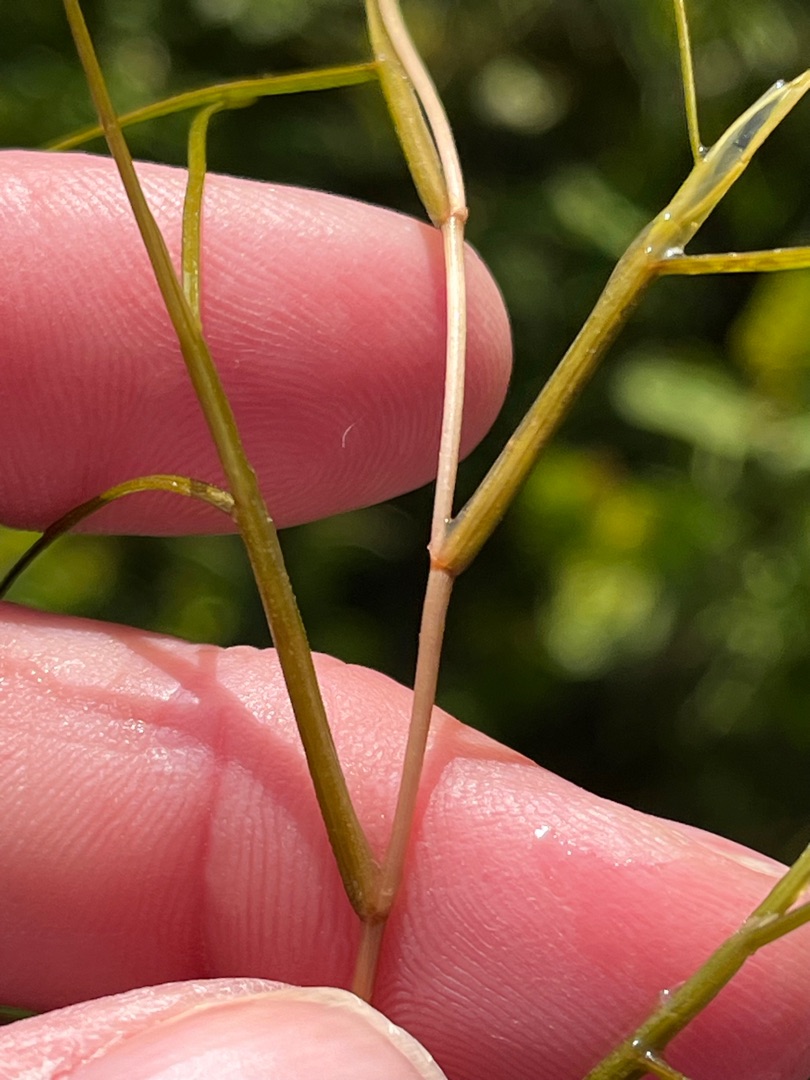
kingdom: Plantae
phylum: Tracheophyta
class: Liliopsida
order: Alismatales
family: Potamogetonaceae
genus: Stuckenia
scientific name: Stuckenia pectinata
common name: Børstebladet vandaks
